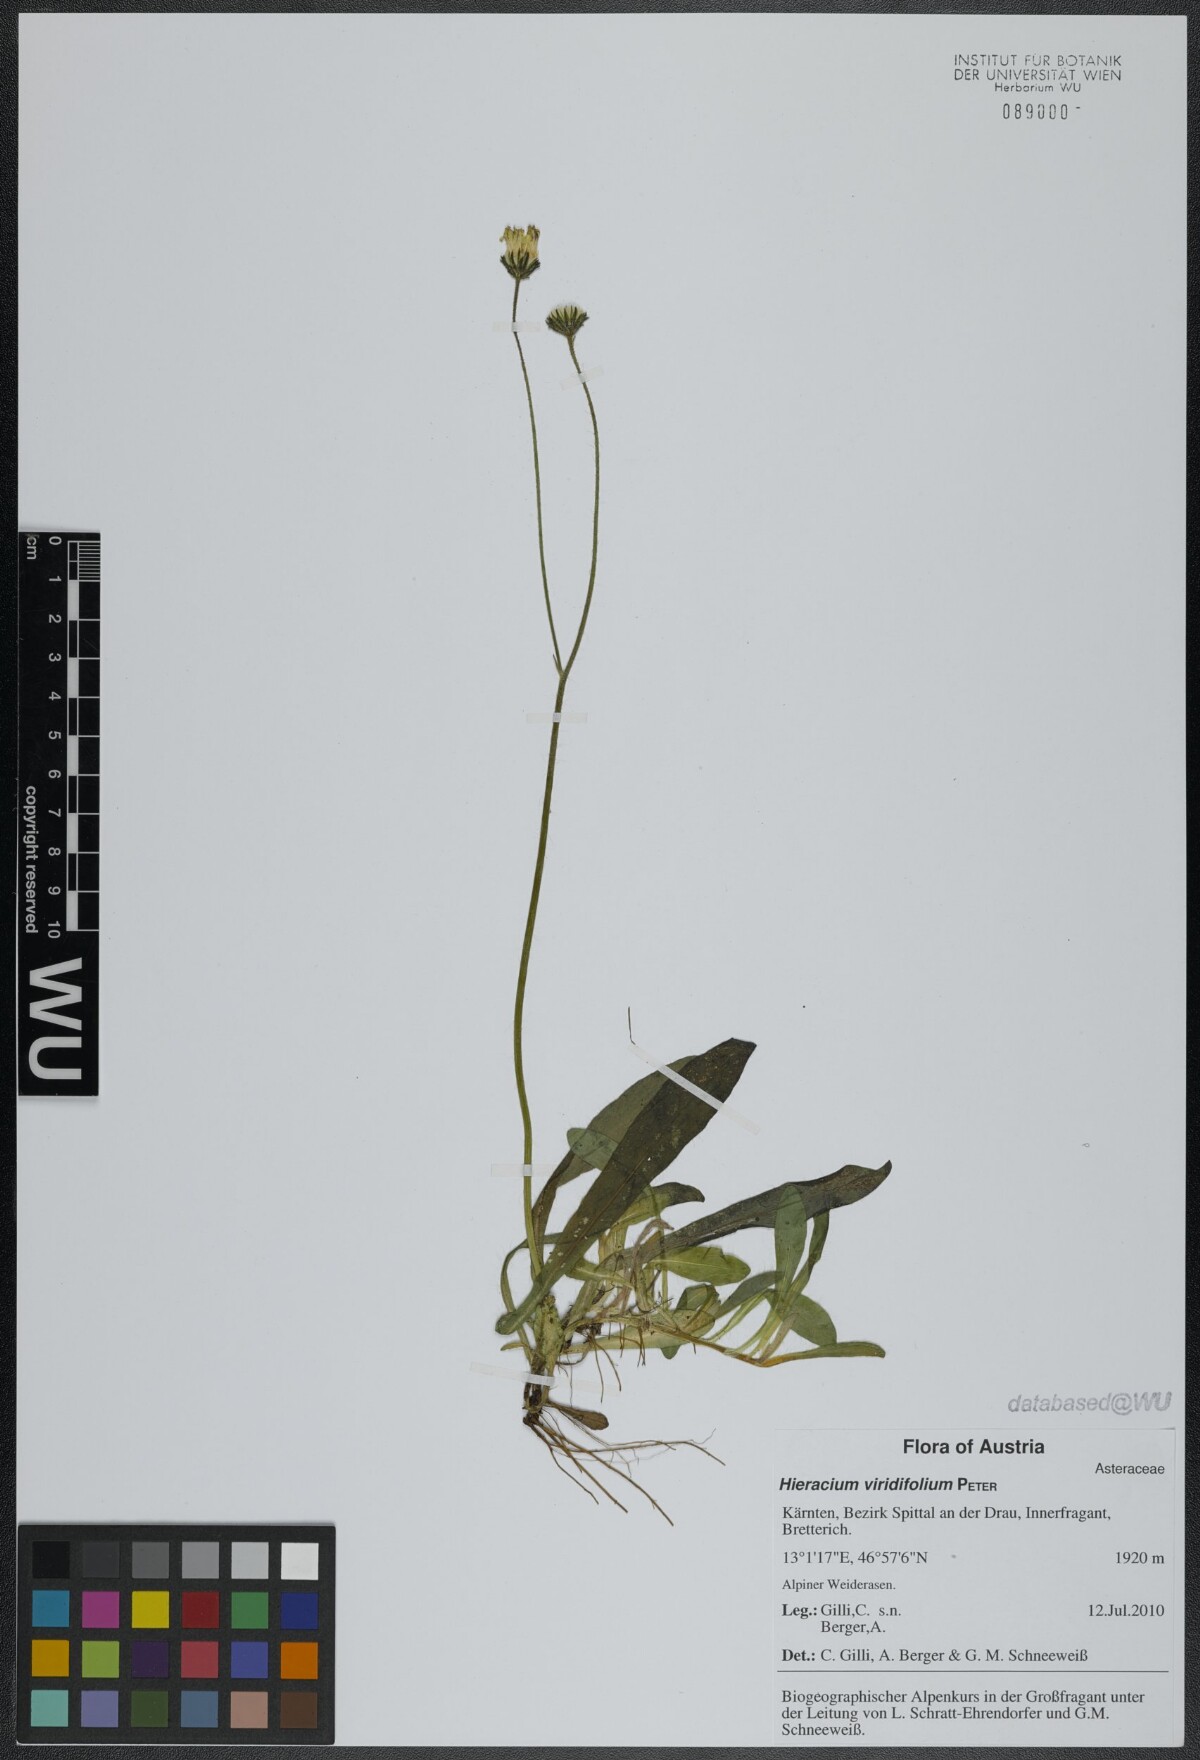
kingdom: Plantae
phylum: Tracheophyta
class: Magnoliopsida
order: Asterales
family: Asteraceae
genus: Pilosella
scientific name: Pilosella viridifolia
